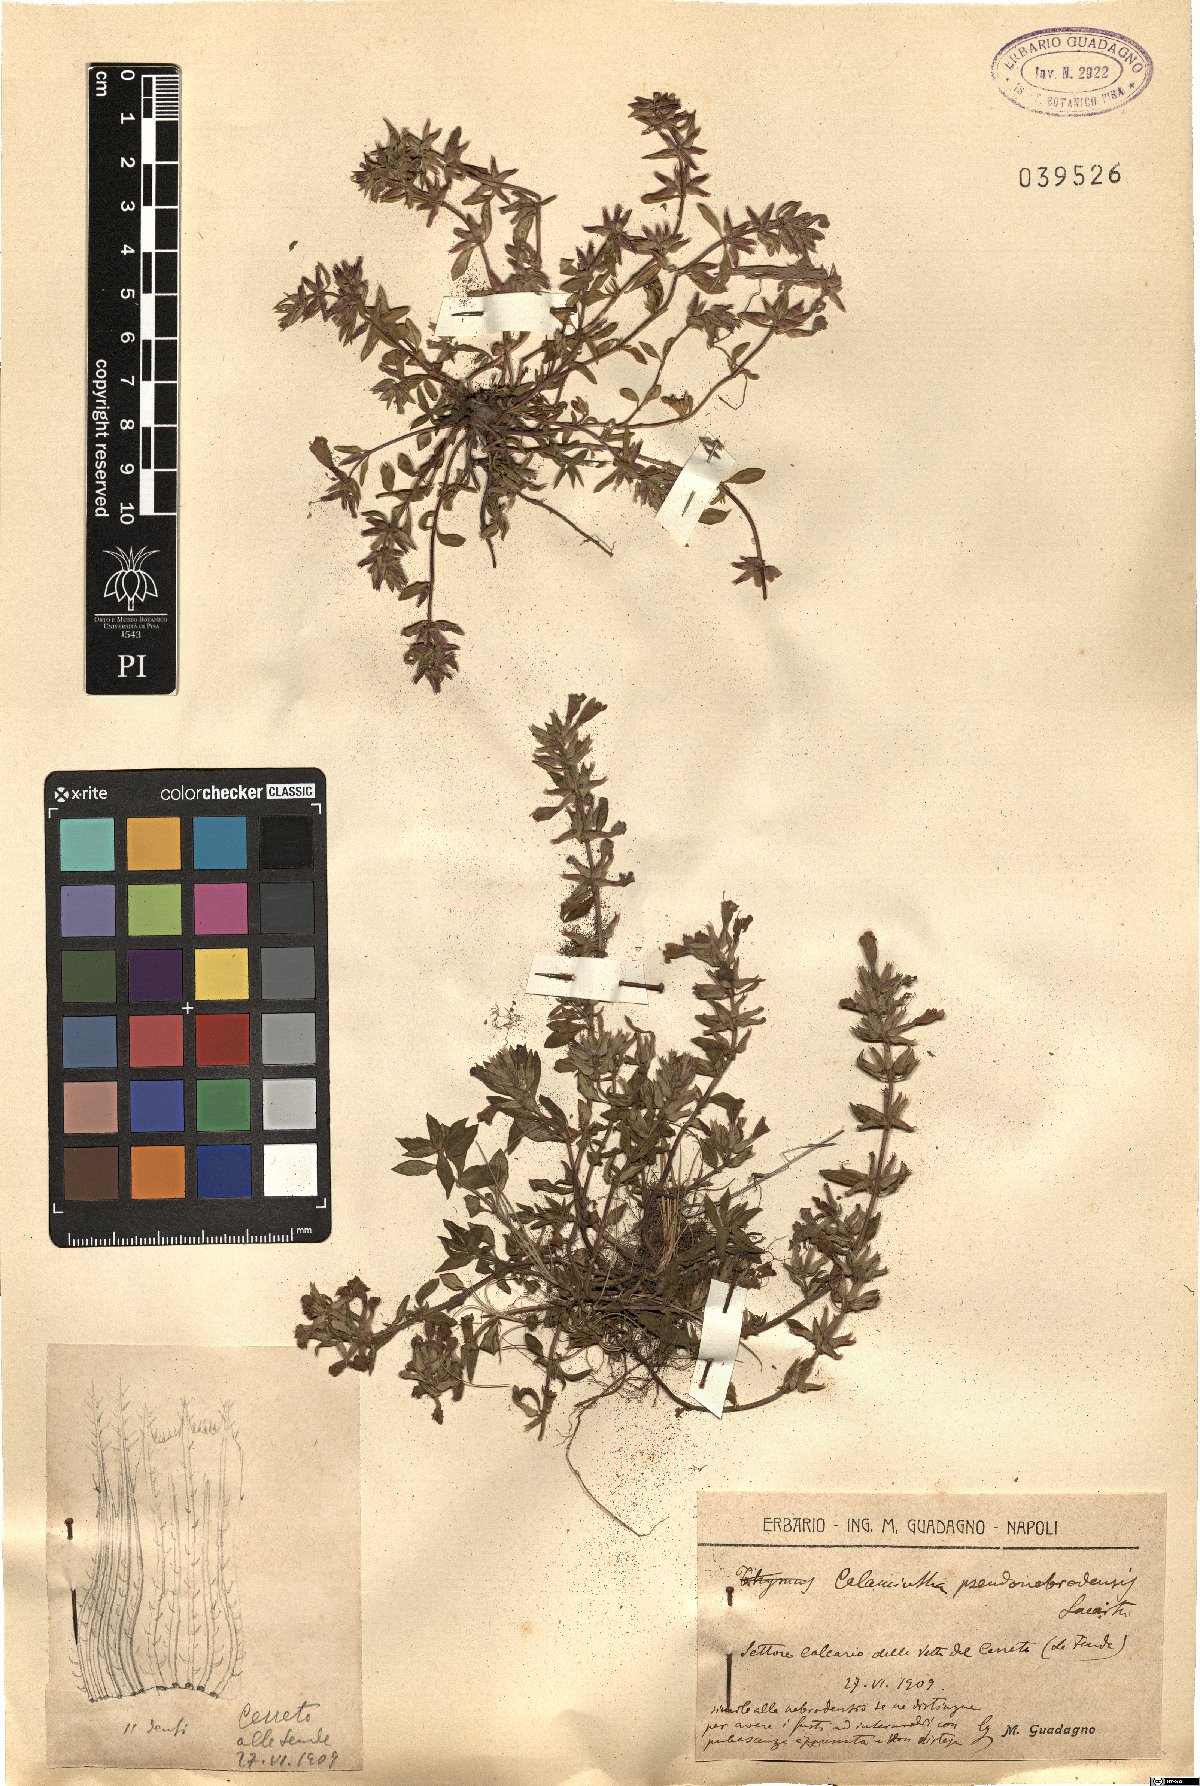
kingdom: Plantae
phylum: Tracheophyta
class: Magnoliopsida
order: Lamiales
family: Lamiaceae
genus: Calamintha
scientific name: Calamintha
